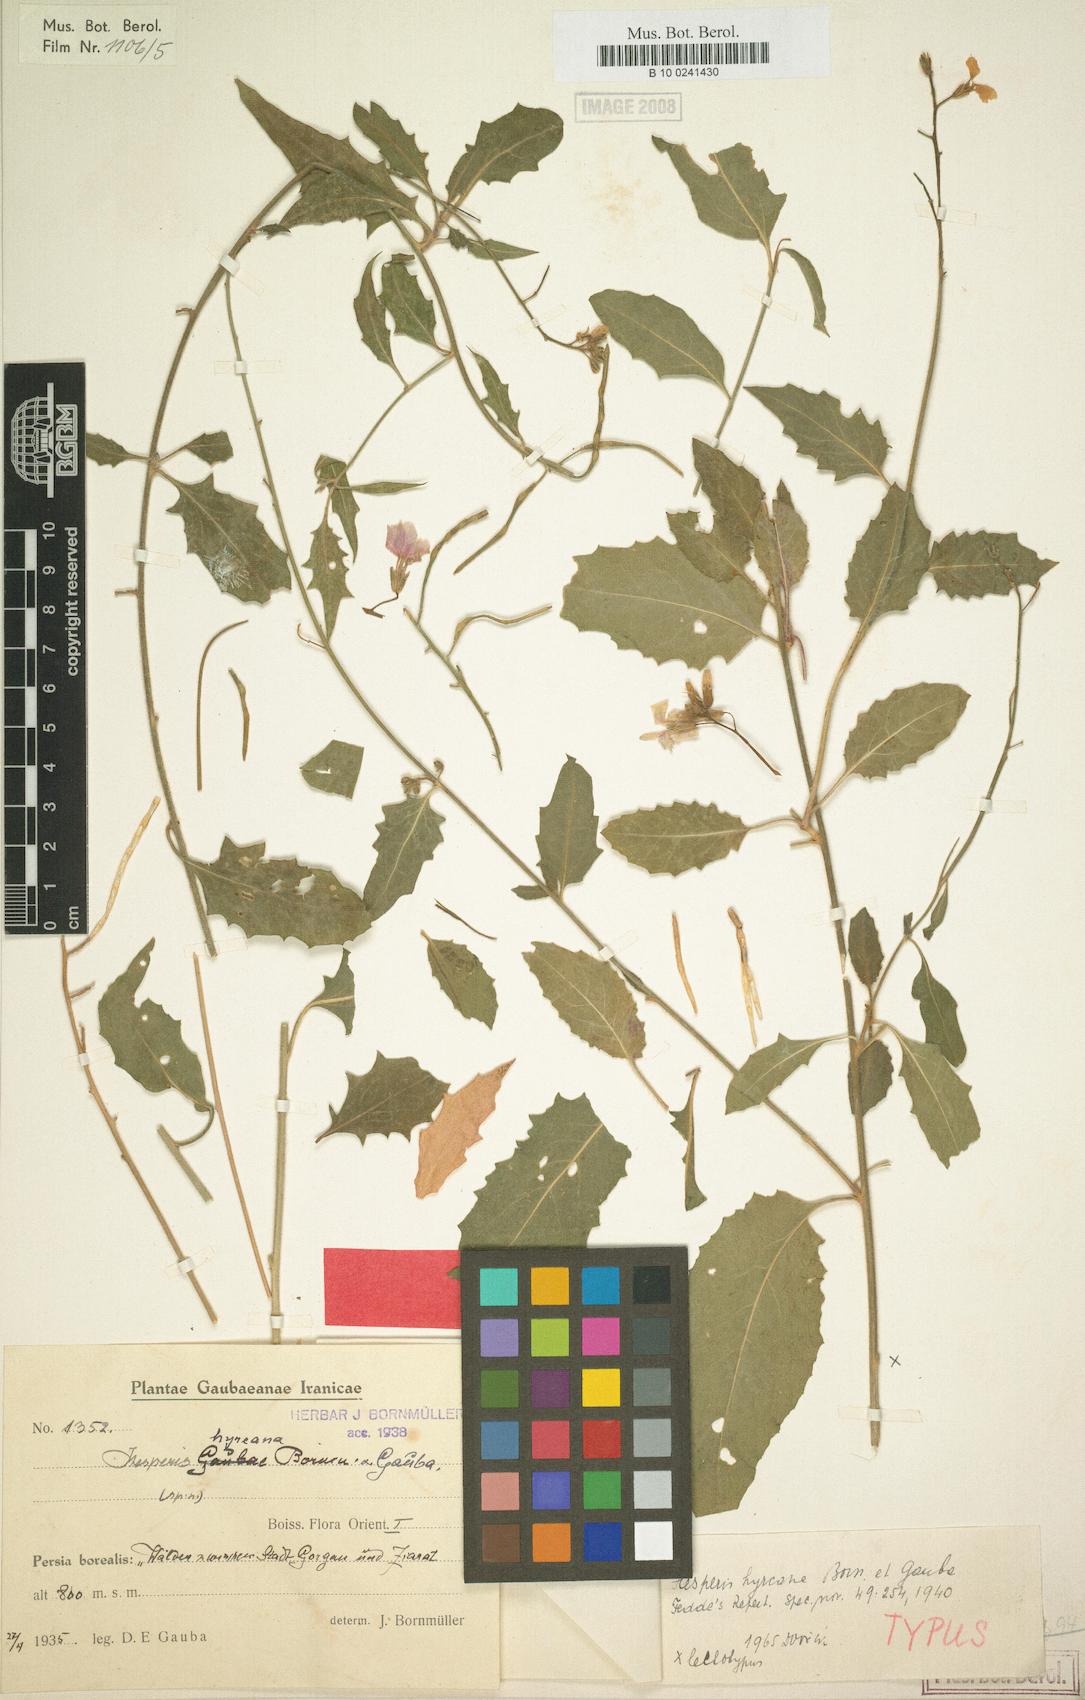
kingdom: Plantae
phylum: Tracheophyta
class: Magnoliopsida
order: Brassicales
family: Brassicaceae
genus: Hesperis
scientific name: Hesperis hyrcana
